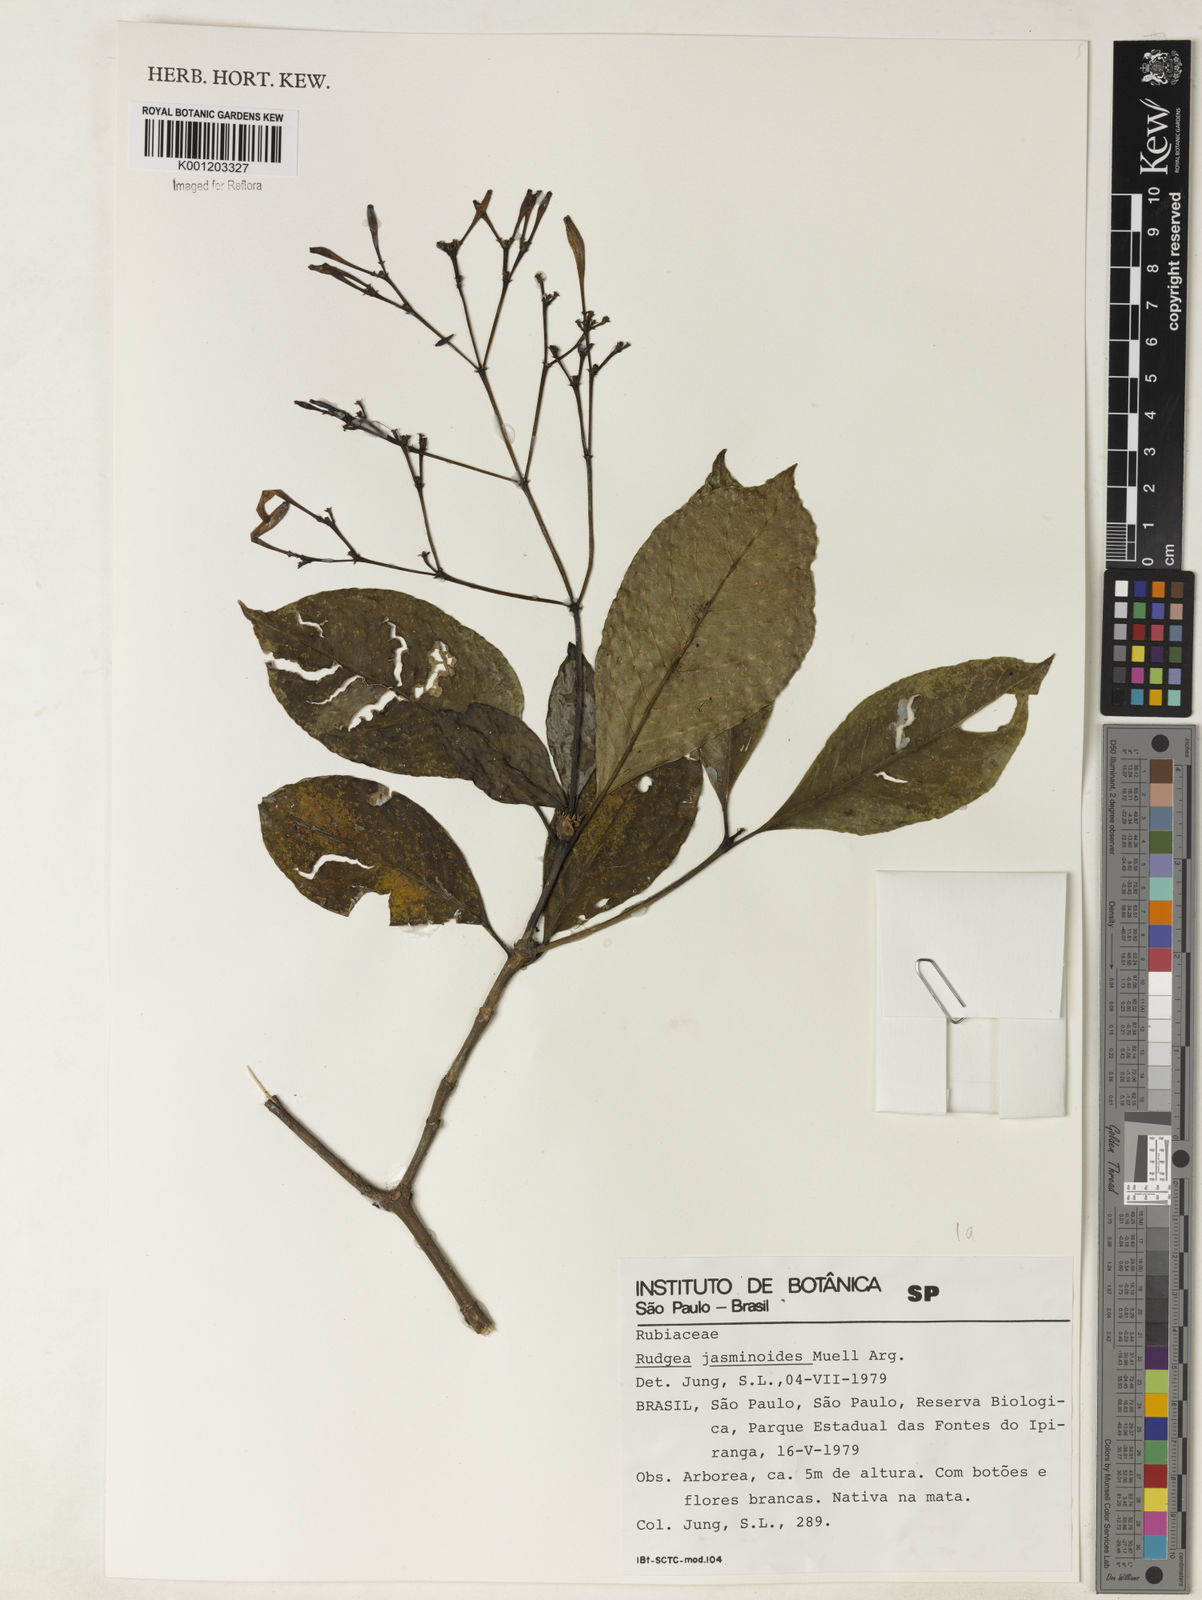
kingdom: Plantae
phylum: Tracheophyta
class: Magnoliopsida
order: Gentianales
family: Rubiaceae
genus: Rudgea
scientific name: Rudgea
